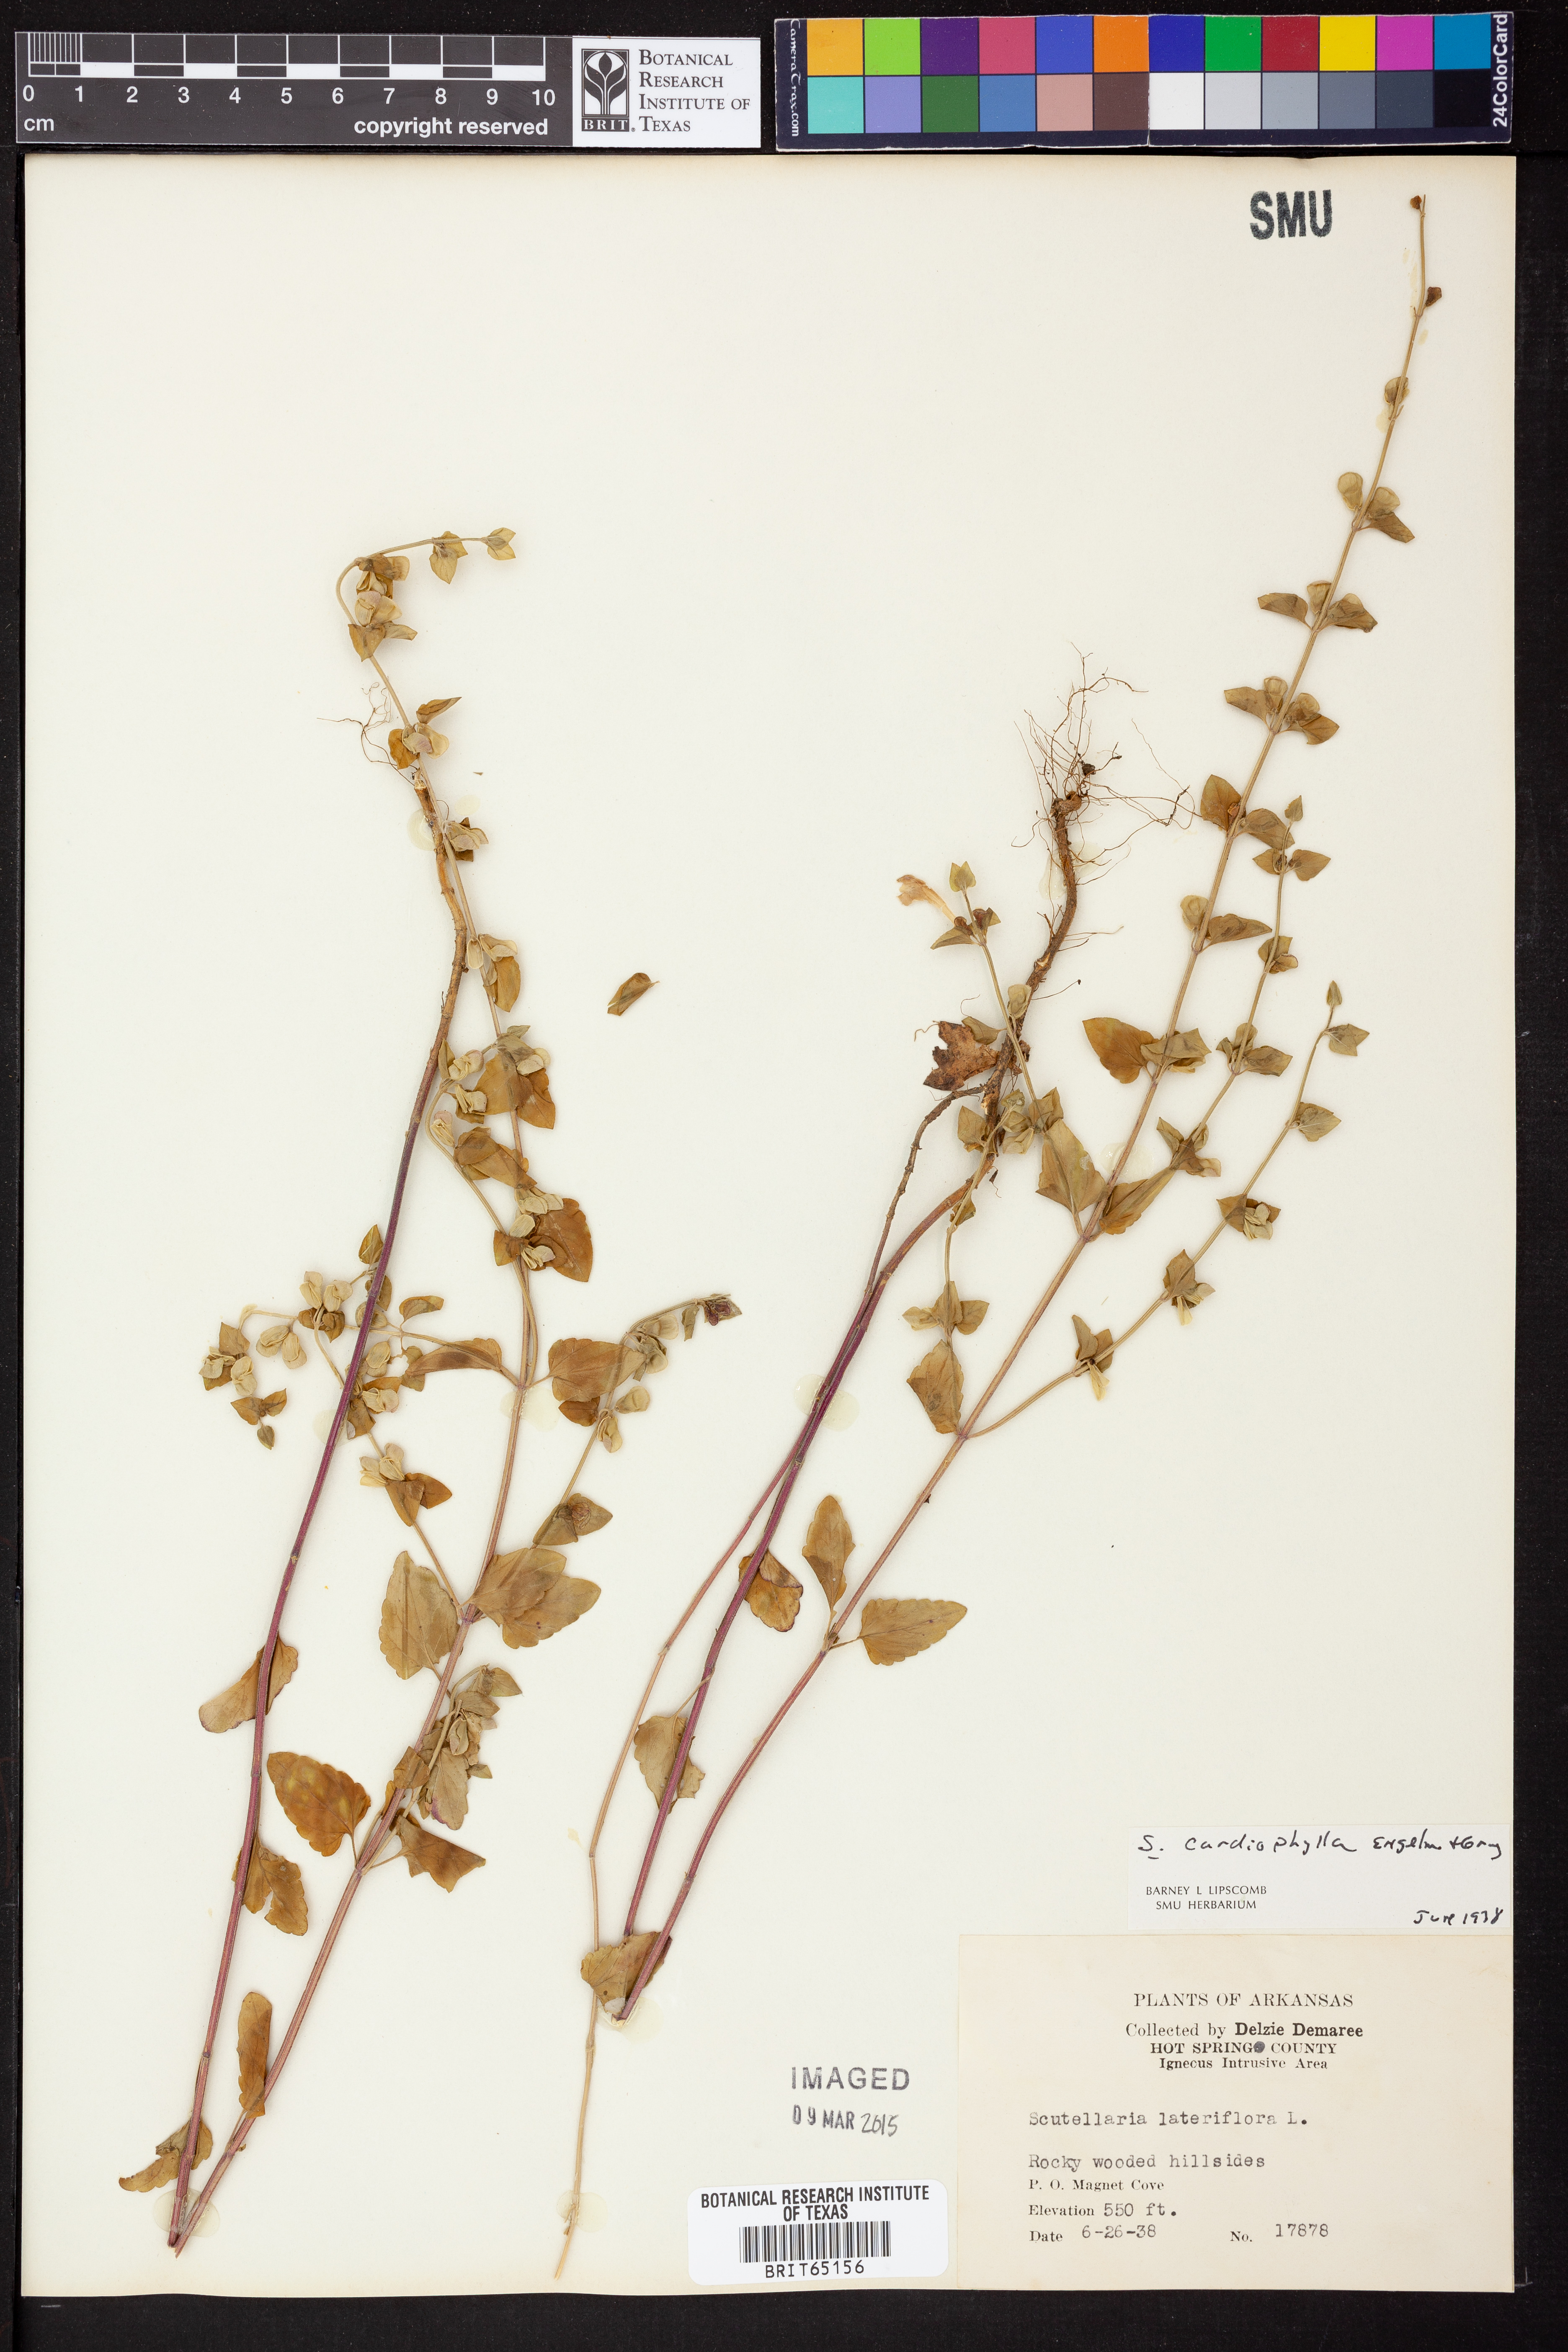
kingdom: Plantae
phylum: Tracheophyta
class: Magnoliopsida
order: Lamiales
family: Lamiaceae
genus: Scutellaria
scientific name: Scutellaria
